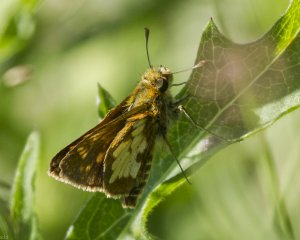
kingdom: Animalia
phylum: Arthropoda
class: Insecta
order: Lepidoptera
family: Hesperiidae
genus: Polites
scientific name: Polites coras
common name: Peck's Skipper
